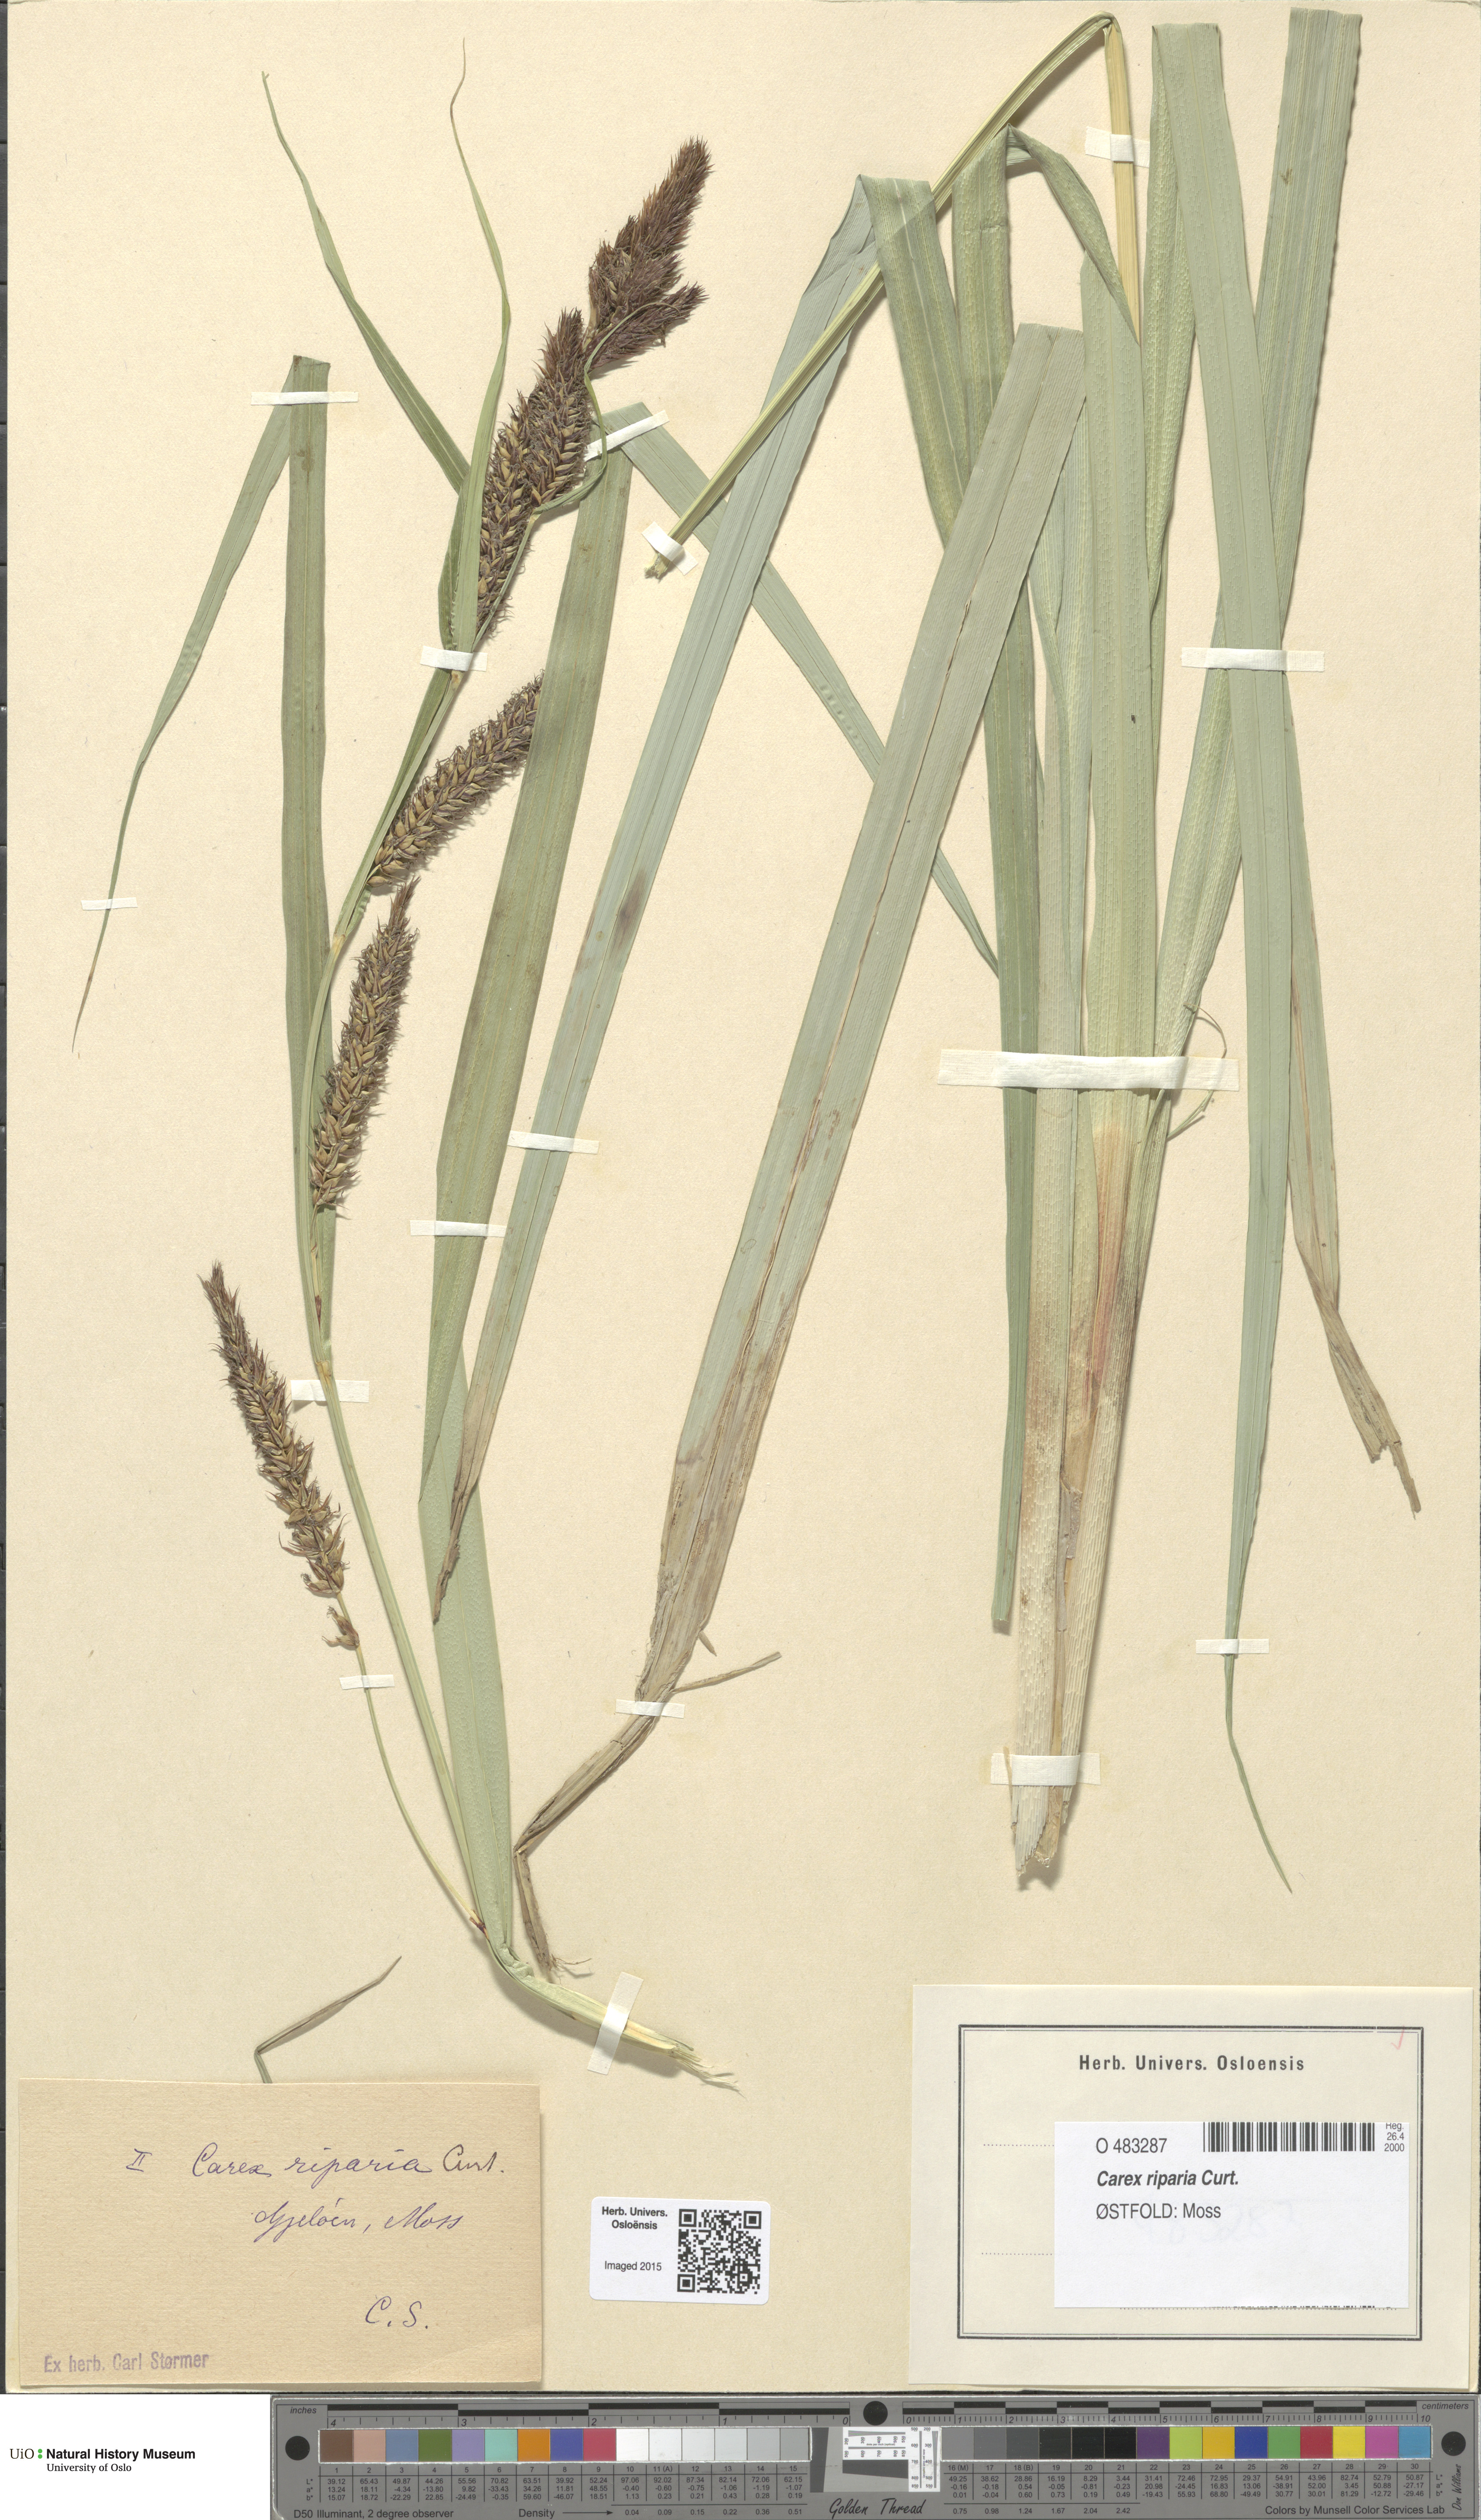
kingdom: Plantae
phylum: Tracheophyta
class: Liliopsida
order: Poales
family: Cyperaceae
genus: Carex
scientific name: Carex riparia
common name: Greater pond-sedge
